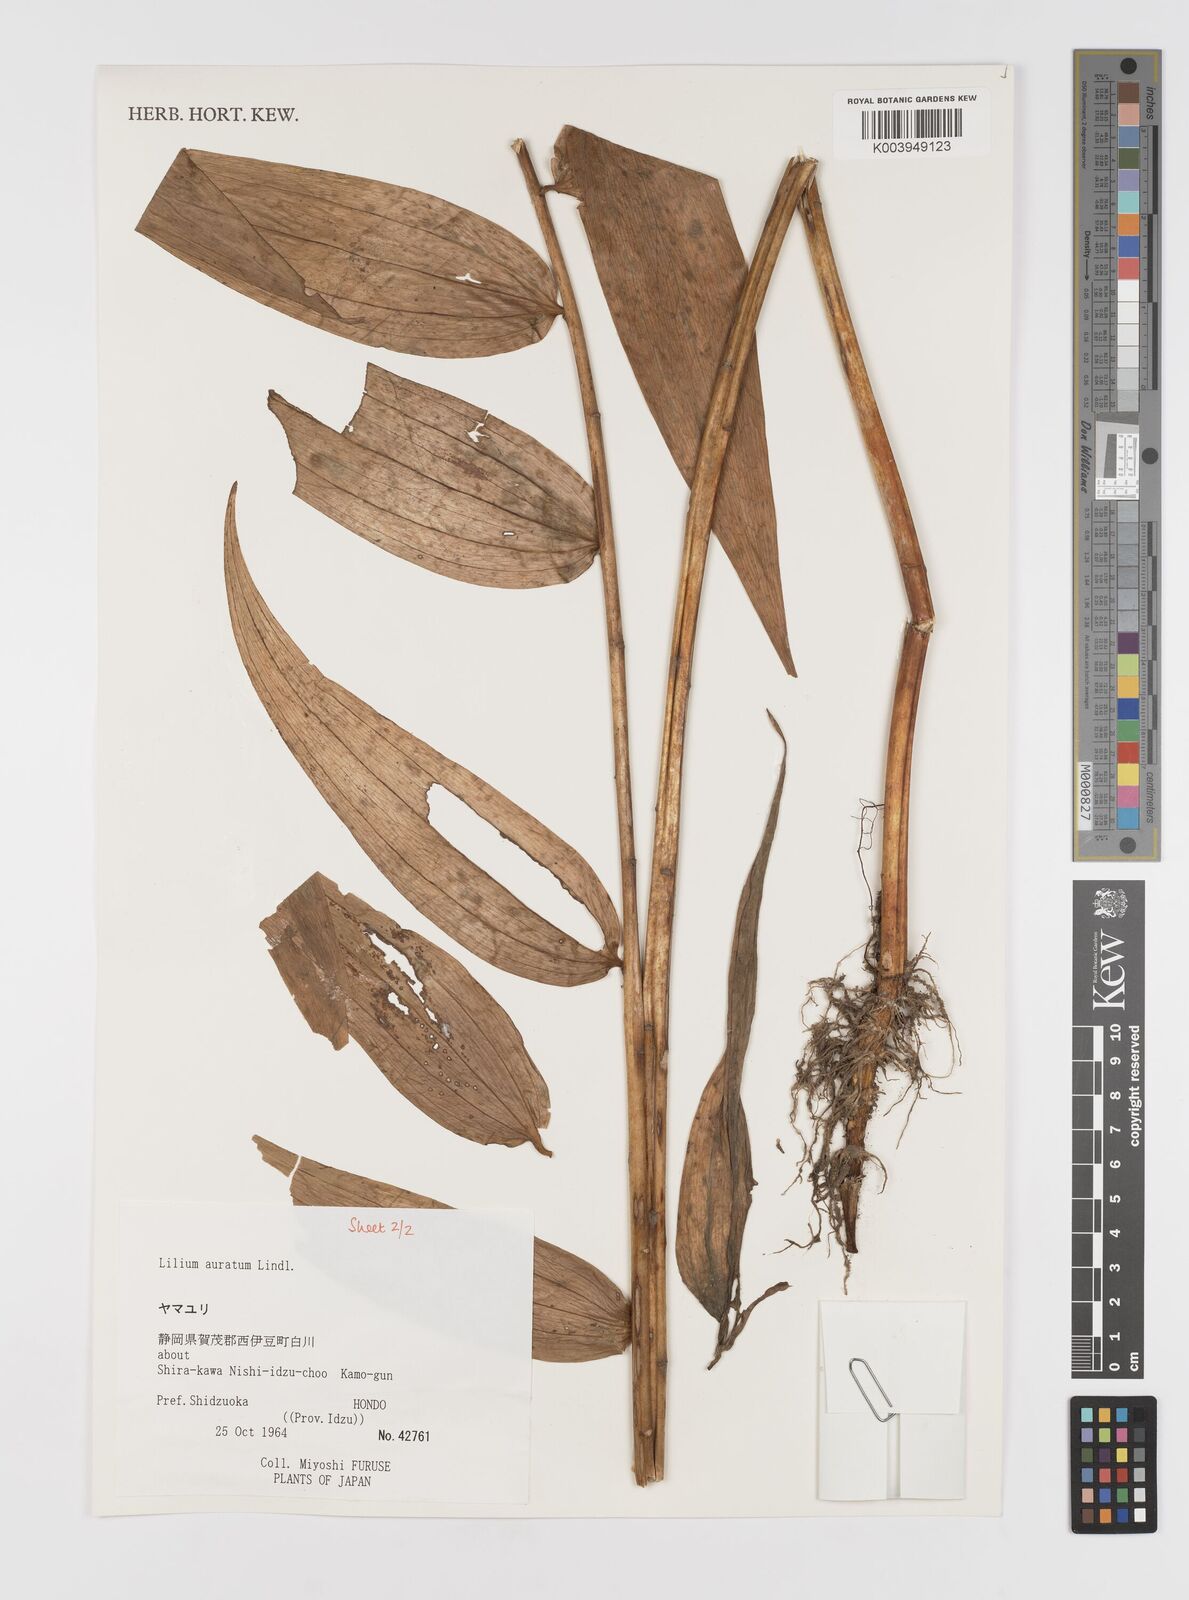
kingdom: Plantae
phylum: Tracheophyta
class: Liliopsida
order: Liliales
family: Liliaceae
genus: Lilium
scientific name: Lilium auratum
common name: Golden-ray lily
